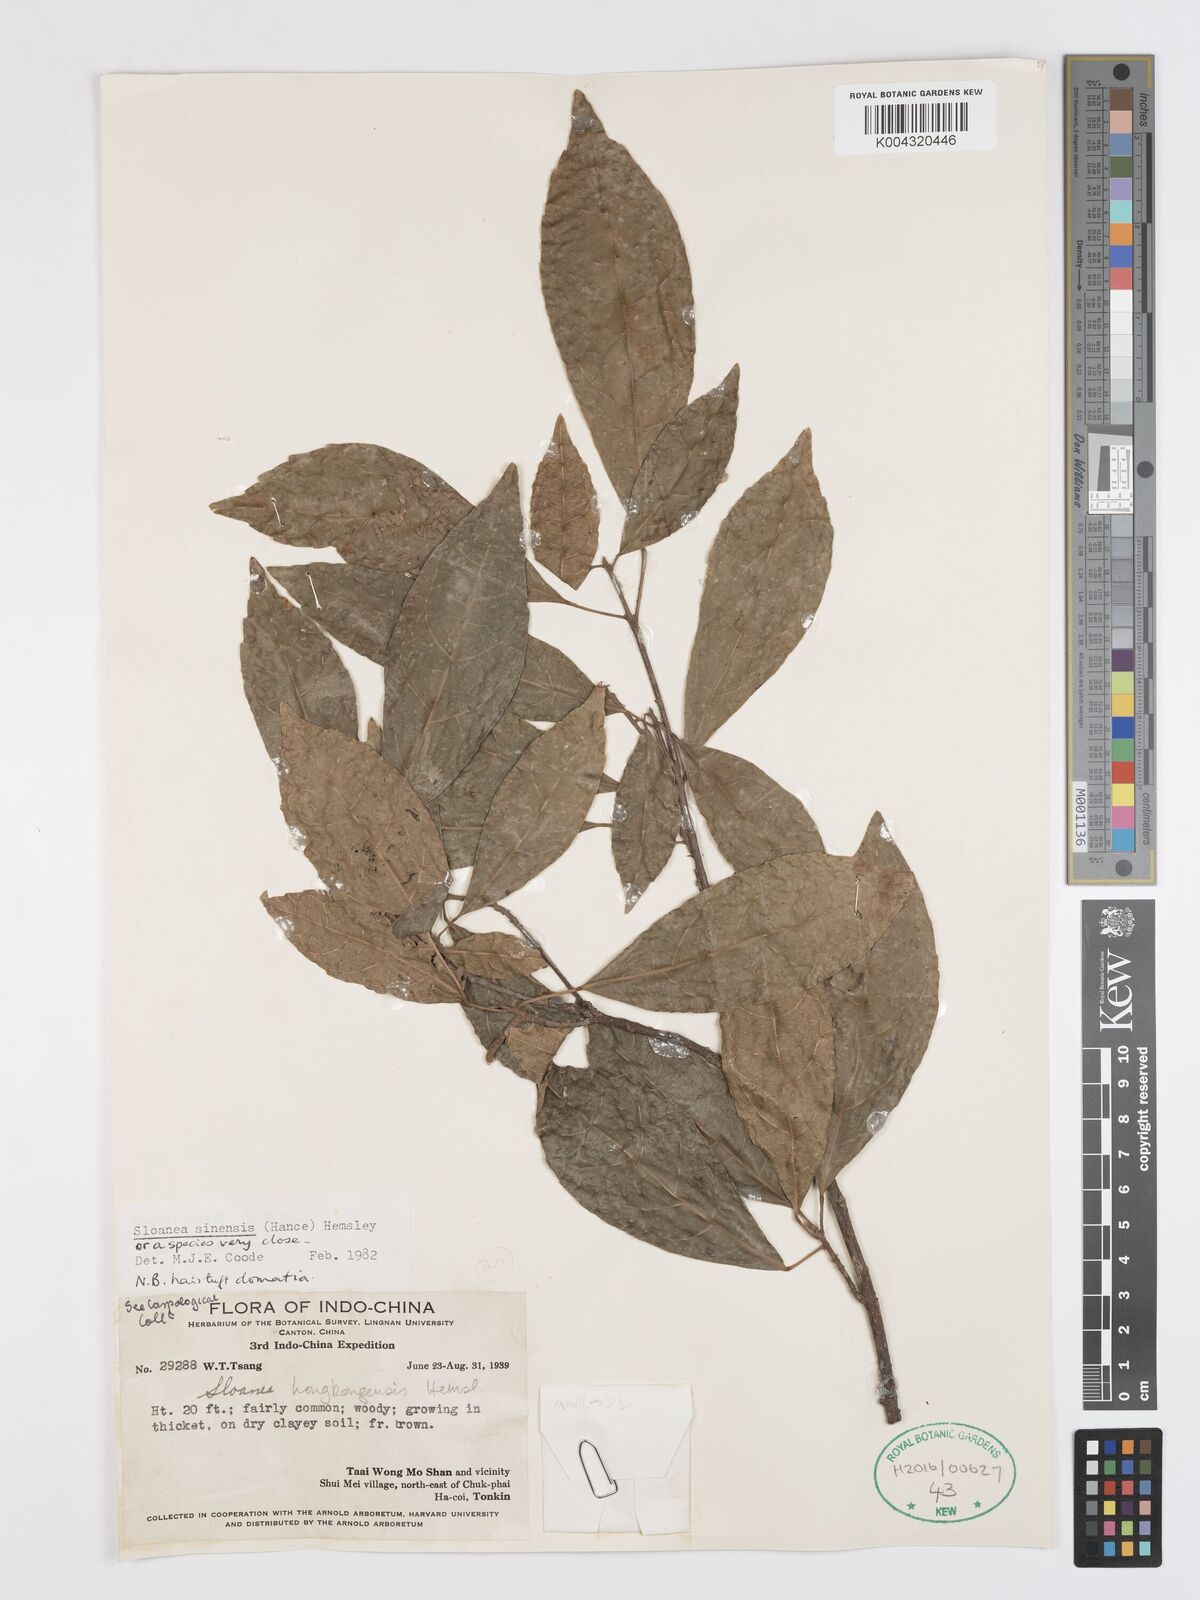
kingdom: Plantae
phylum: Tracheophyta
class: Magnoliopsida
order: Oxalidales
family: Elaeocarpaceae
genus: Sloanea
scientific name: Sloanea sinensis
